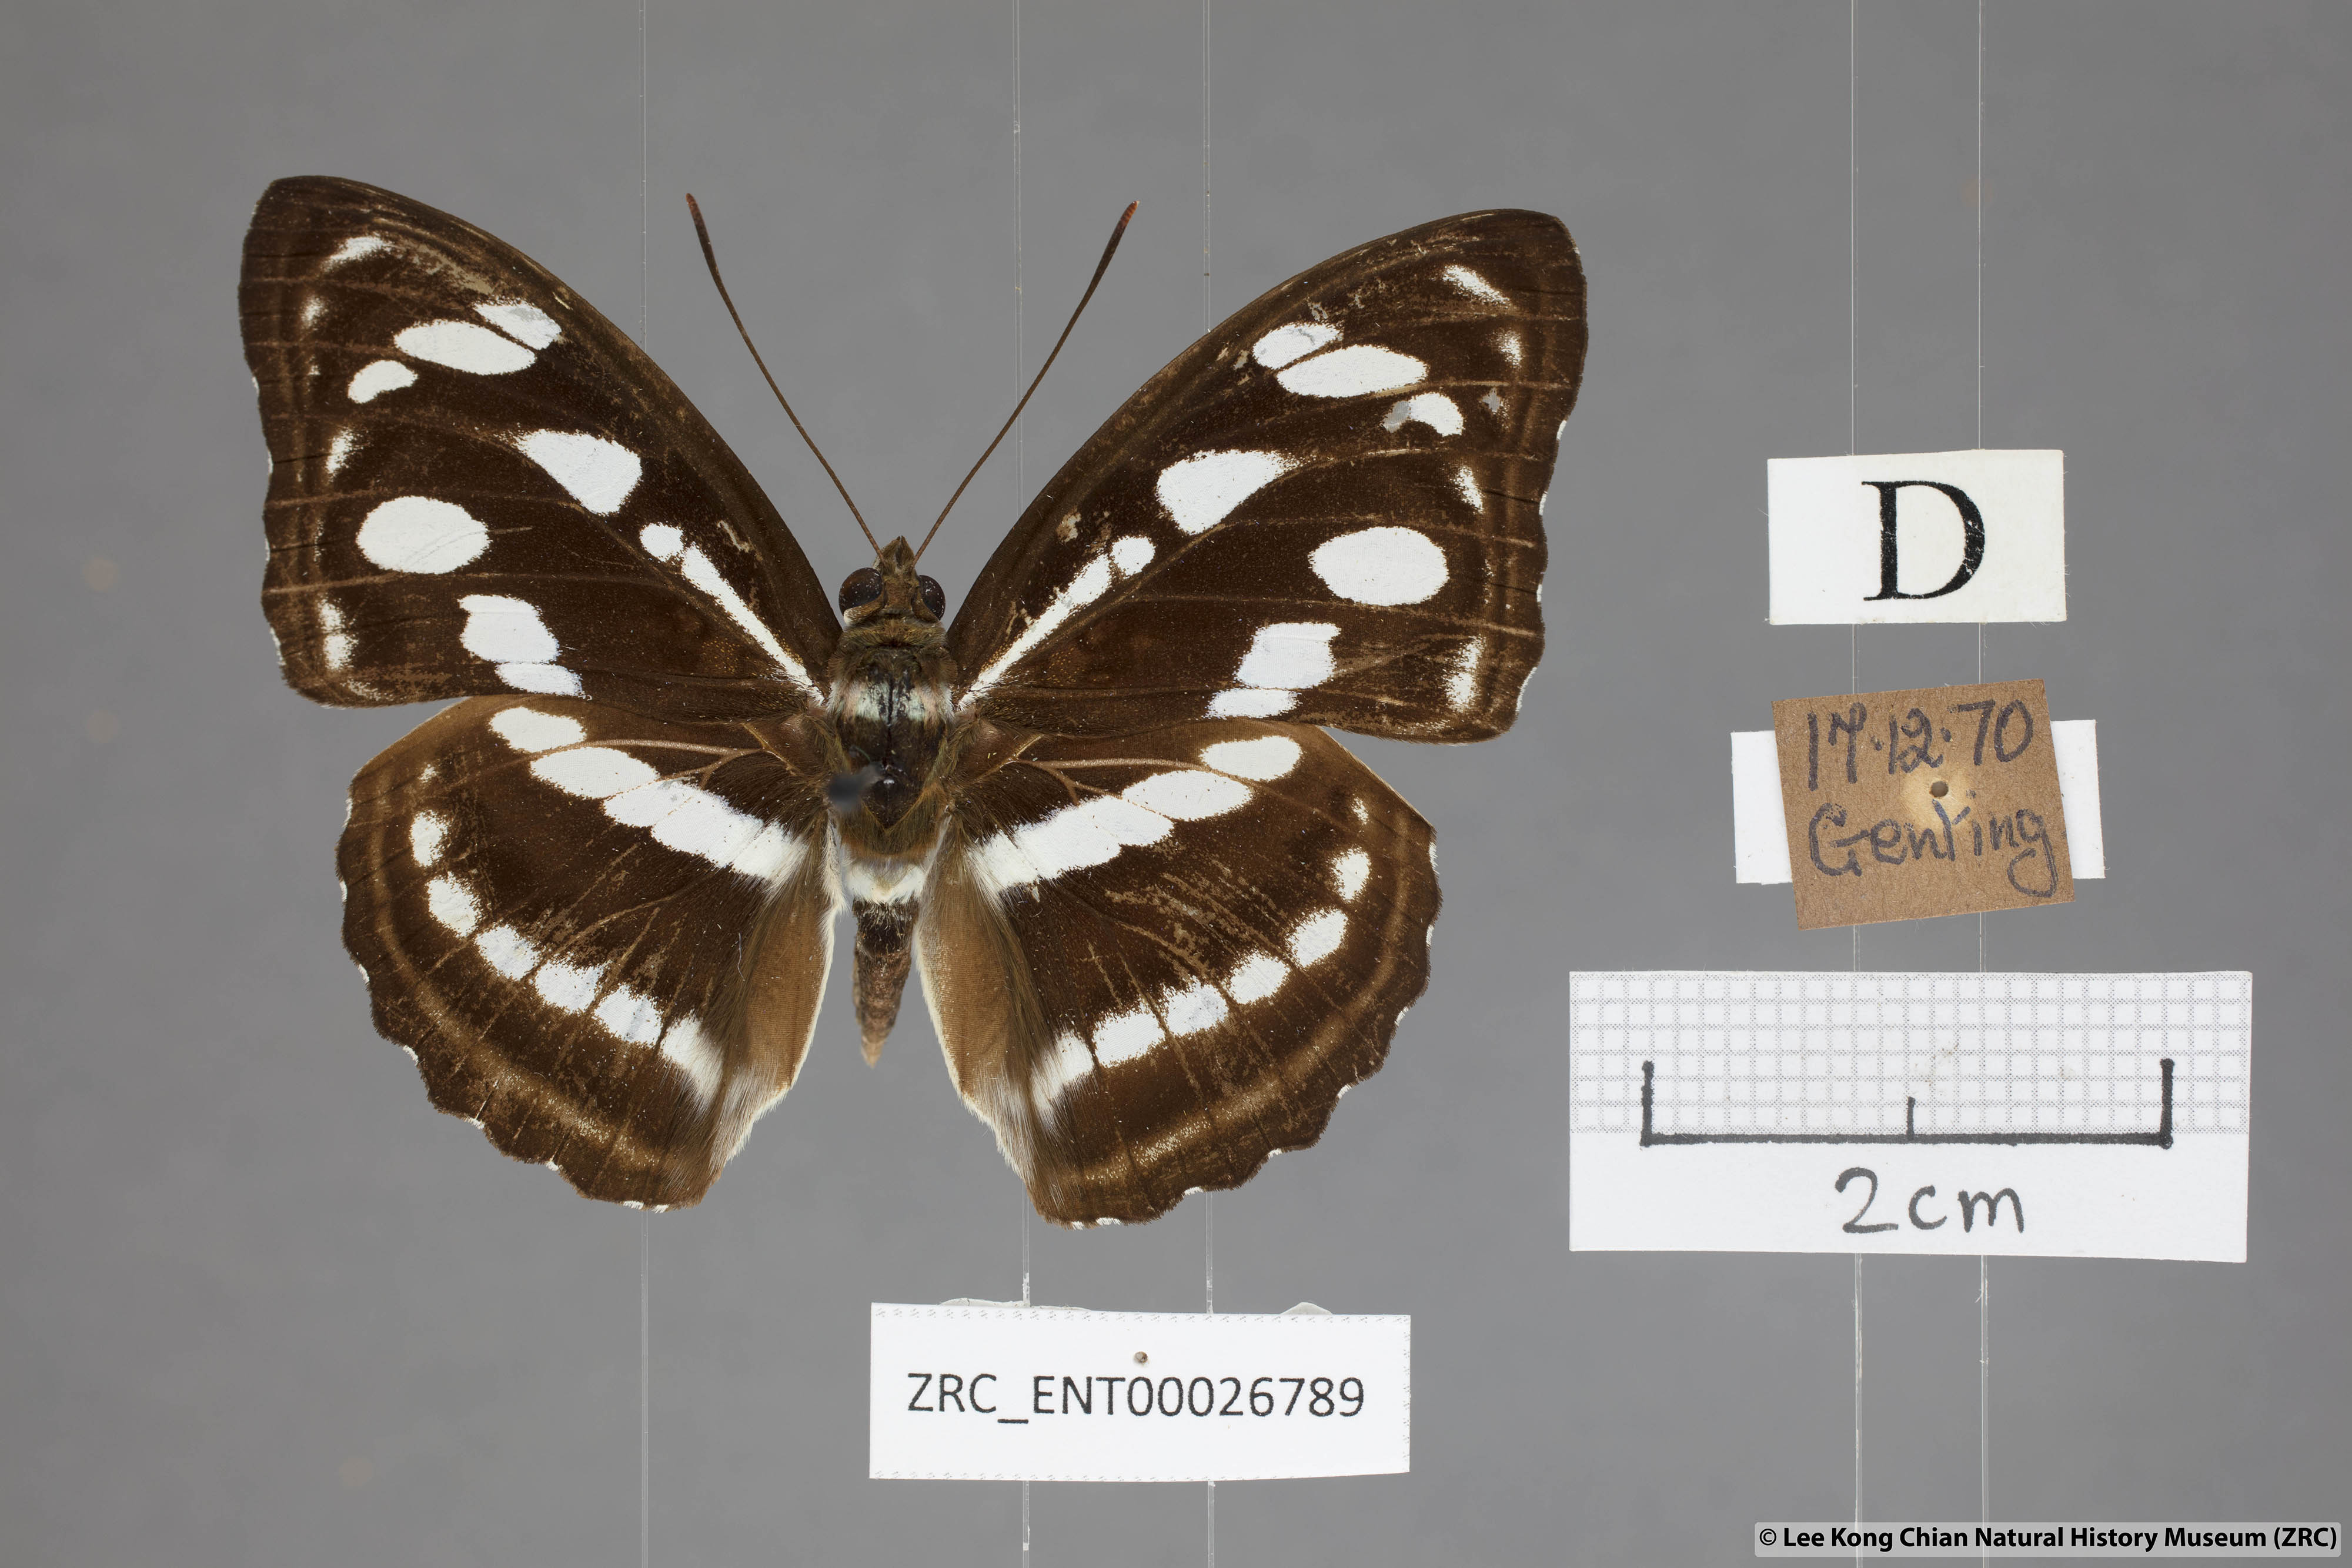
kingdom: Animalia
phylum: Arthropoda
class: Insecta
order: Lepidoptera
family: Nymphalidae
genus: Parathyma
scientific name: Parathyma reta
